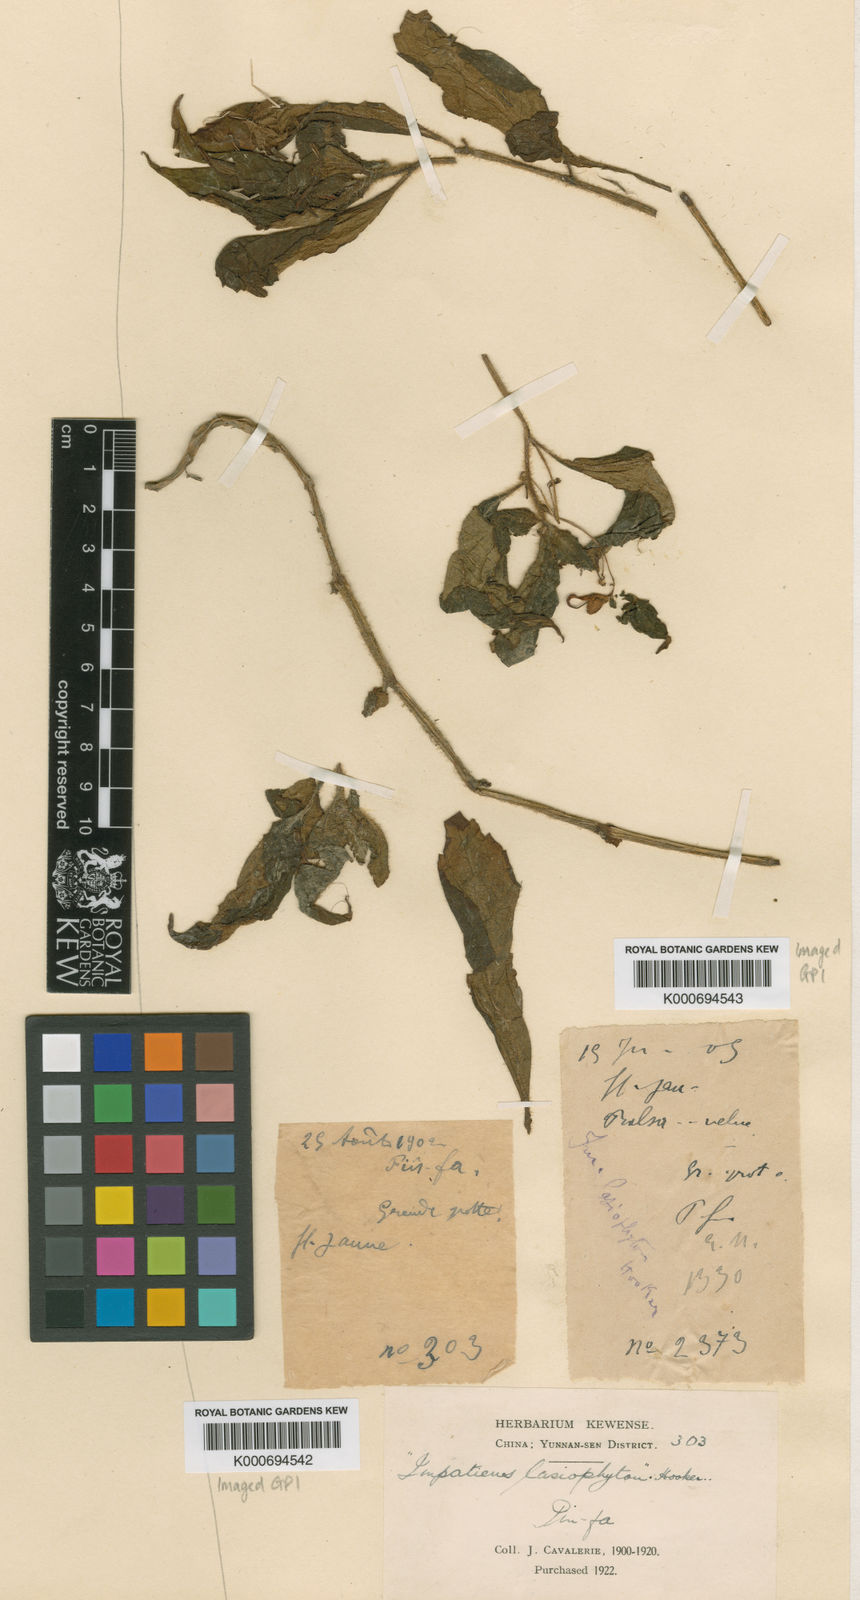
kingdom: Plantae
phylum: Tracheophyta
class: Magnoliopsida
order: Ericales
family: Balsaminaceae
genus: Impatiens
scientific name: Impatiens lasiophyton
